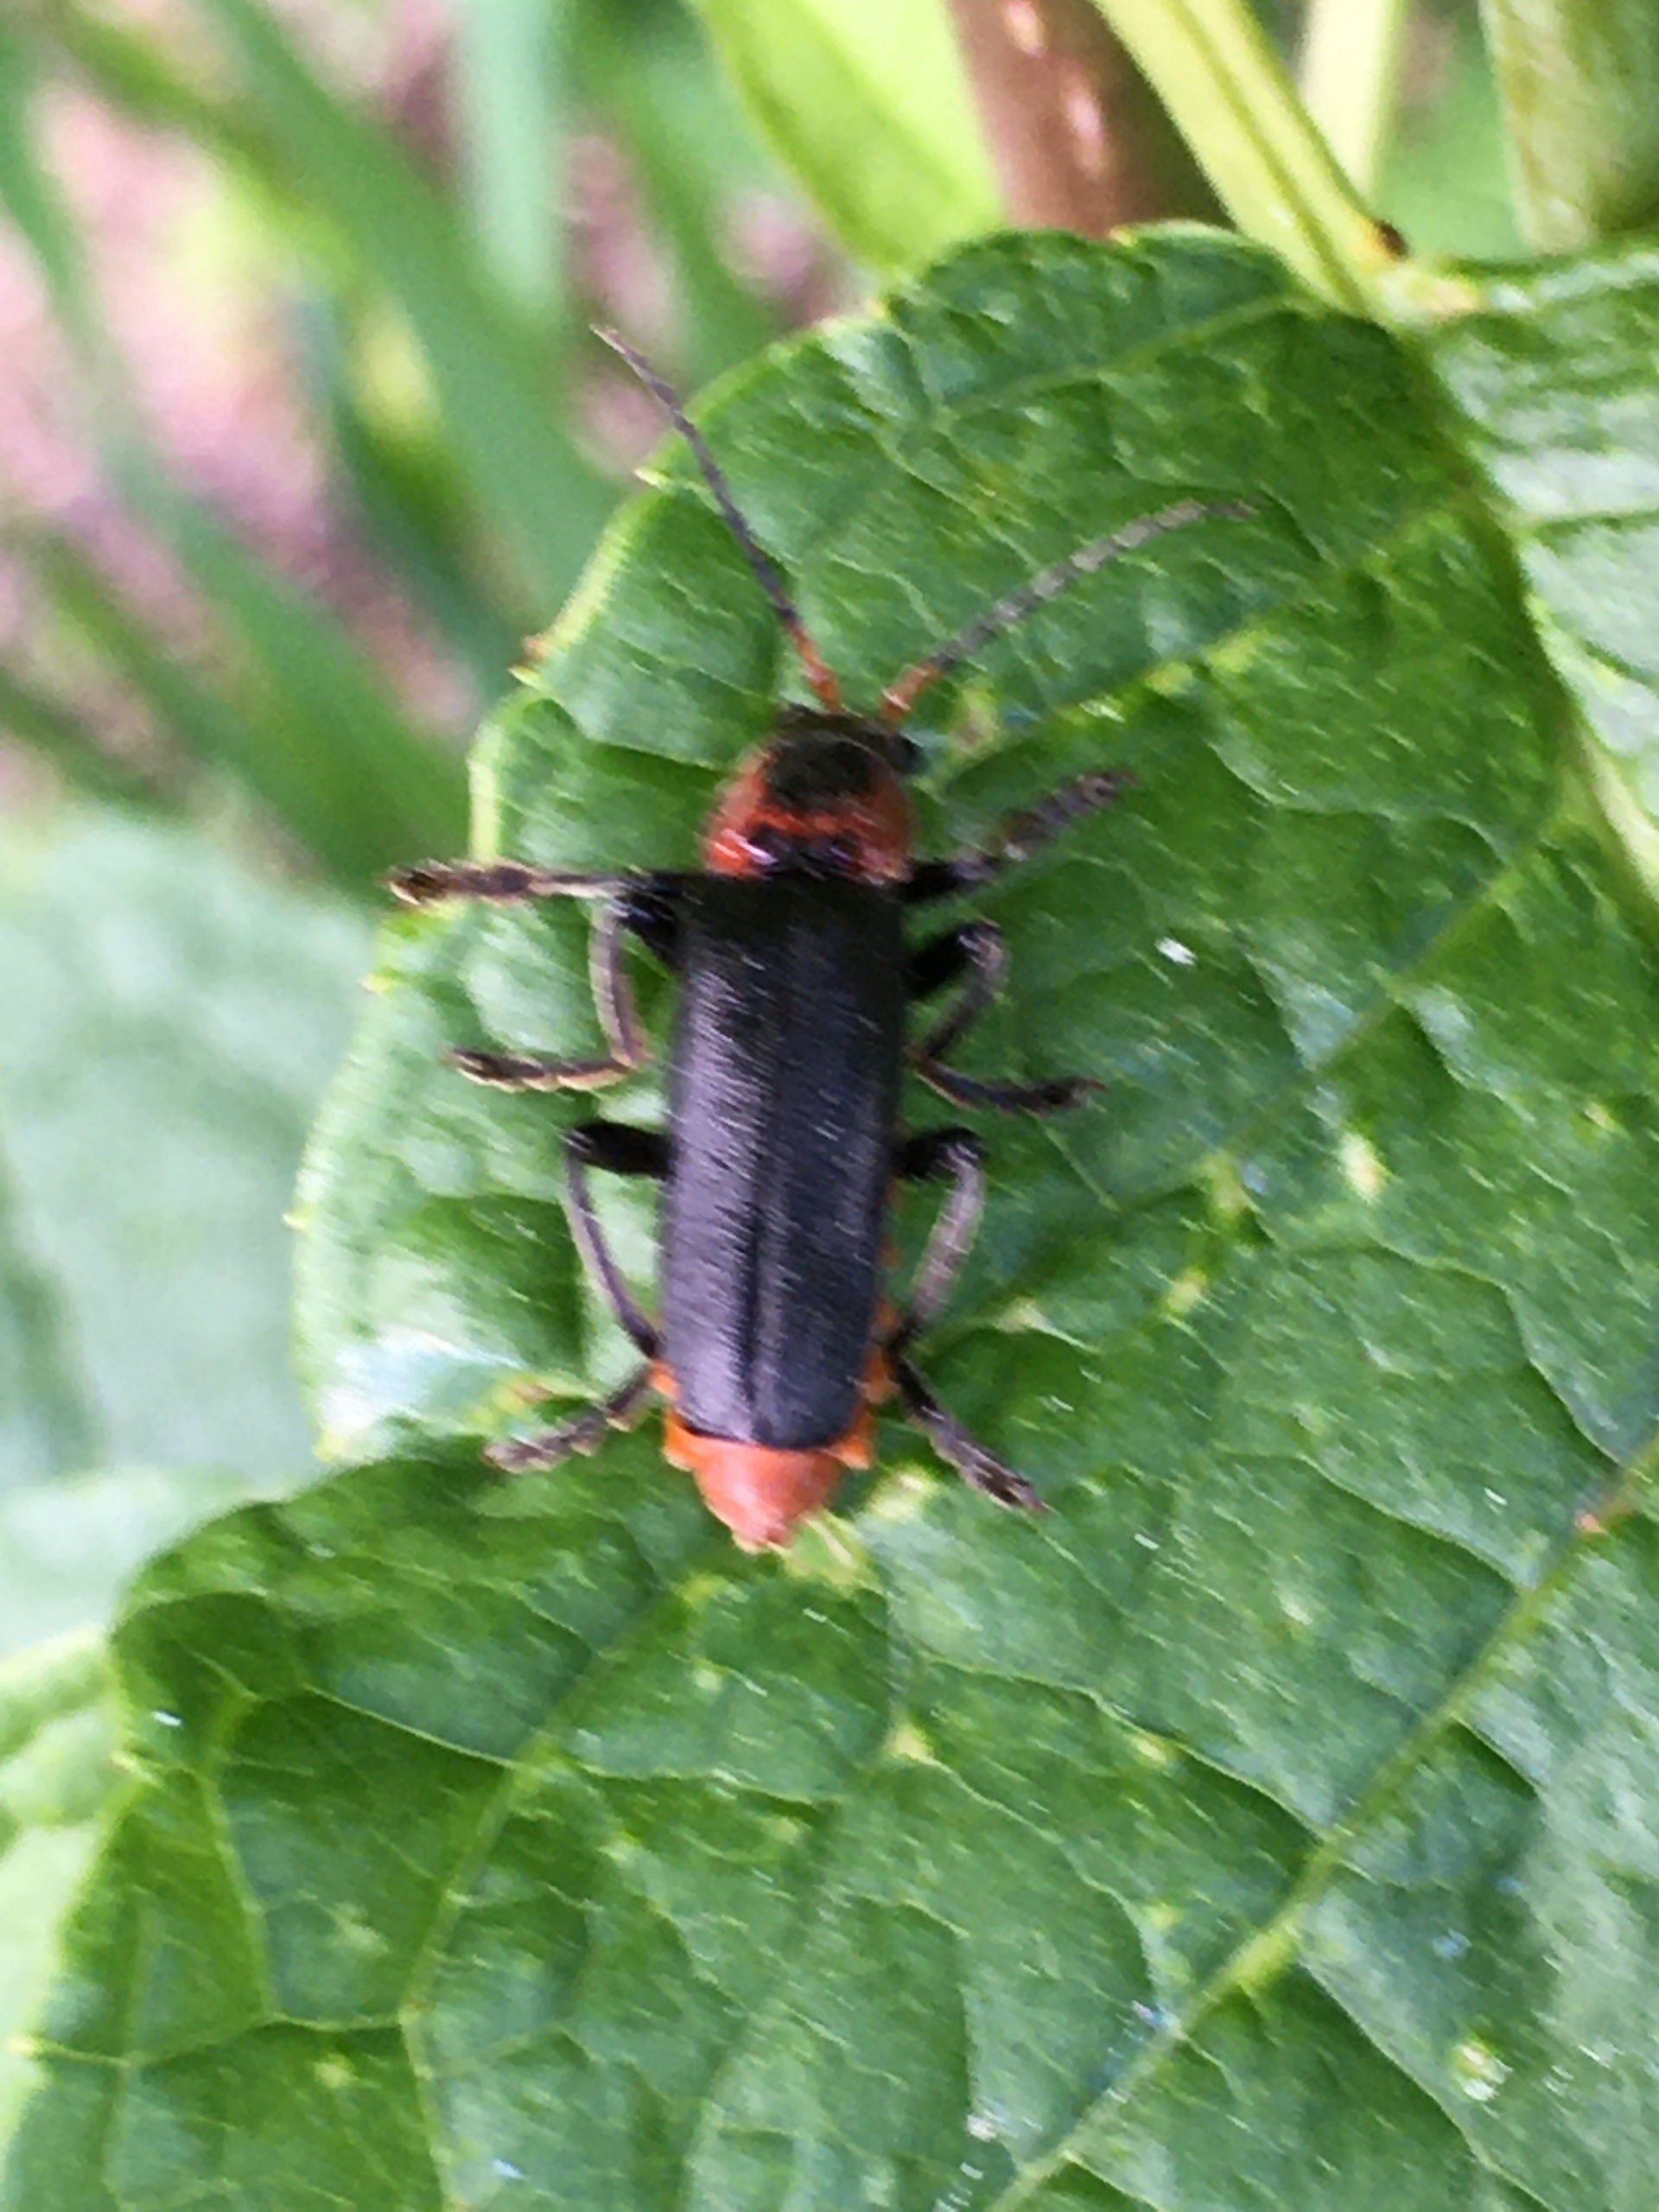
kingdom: Animalia
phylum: Arthropoda
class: Insecta
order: Coleoptera
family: Cantharidae
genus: Cantharis
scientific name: Cantharis fusca
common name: Stor blødvinge
